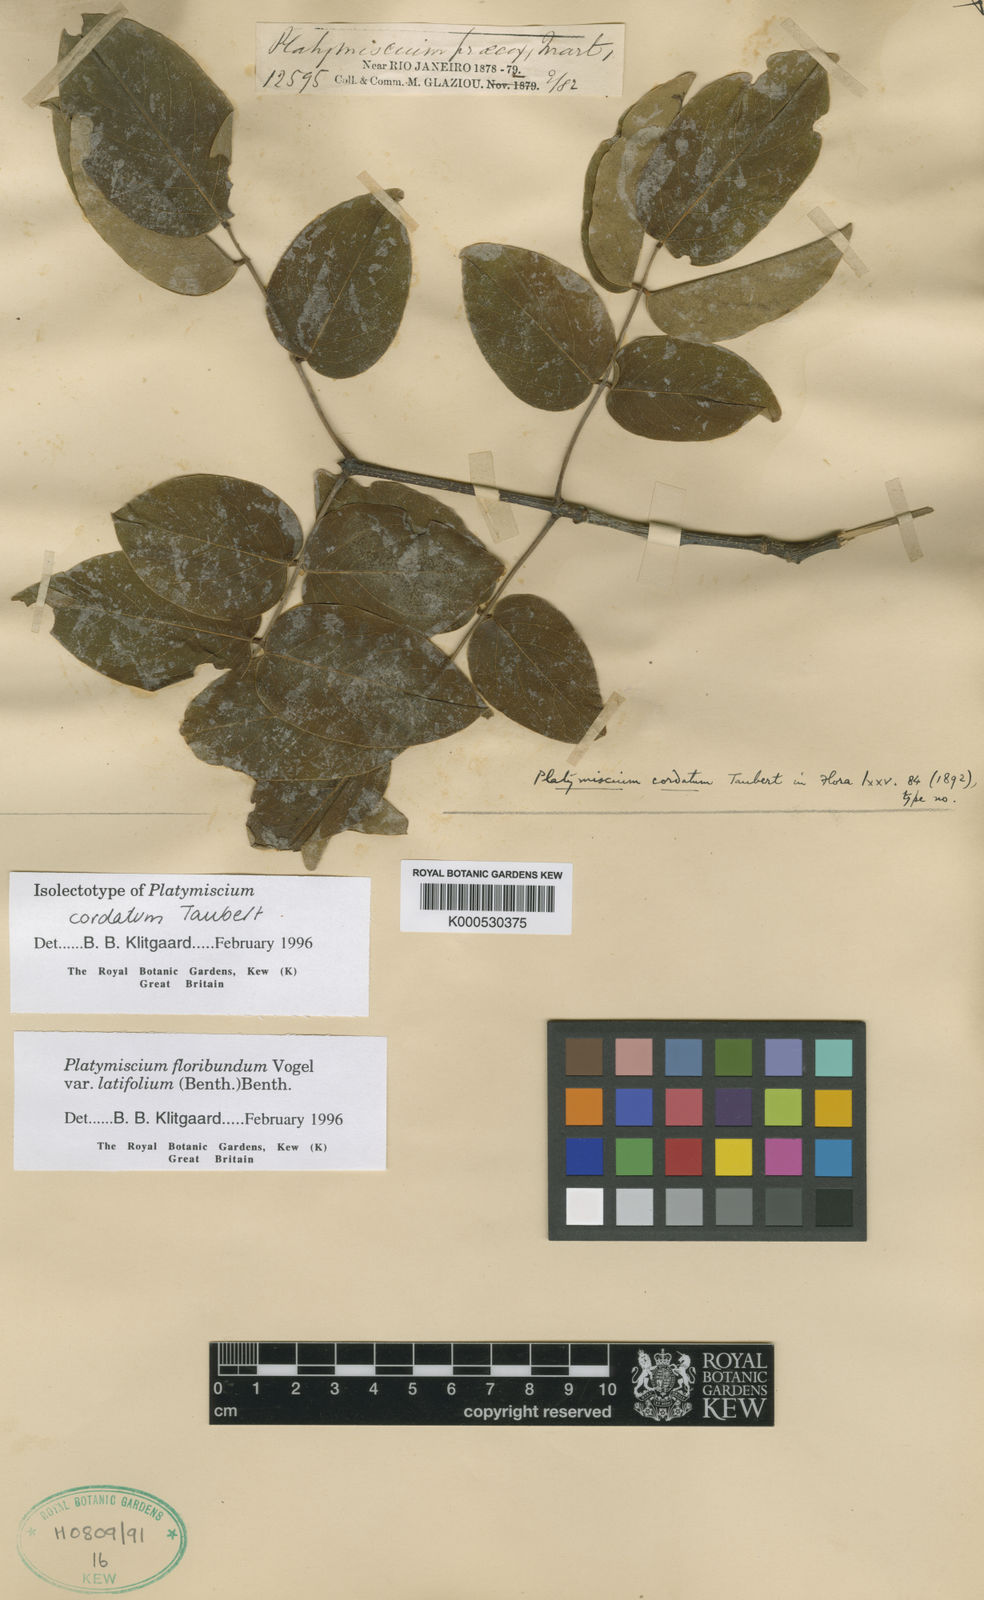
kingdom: Plantae
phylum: Tracheophyta
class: Magnoliopsida
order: Fabales
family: Fabaceae
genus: Platymiscium
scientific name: Platymiscium floribundum
